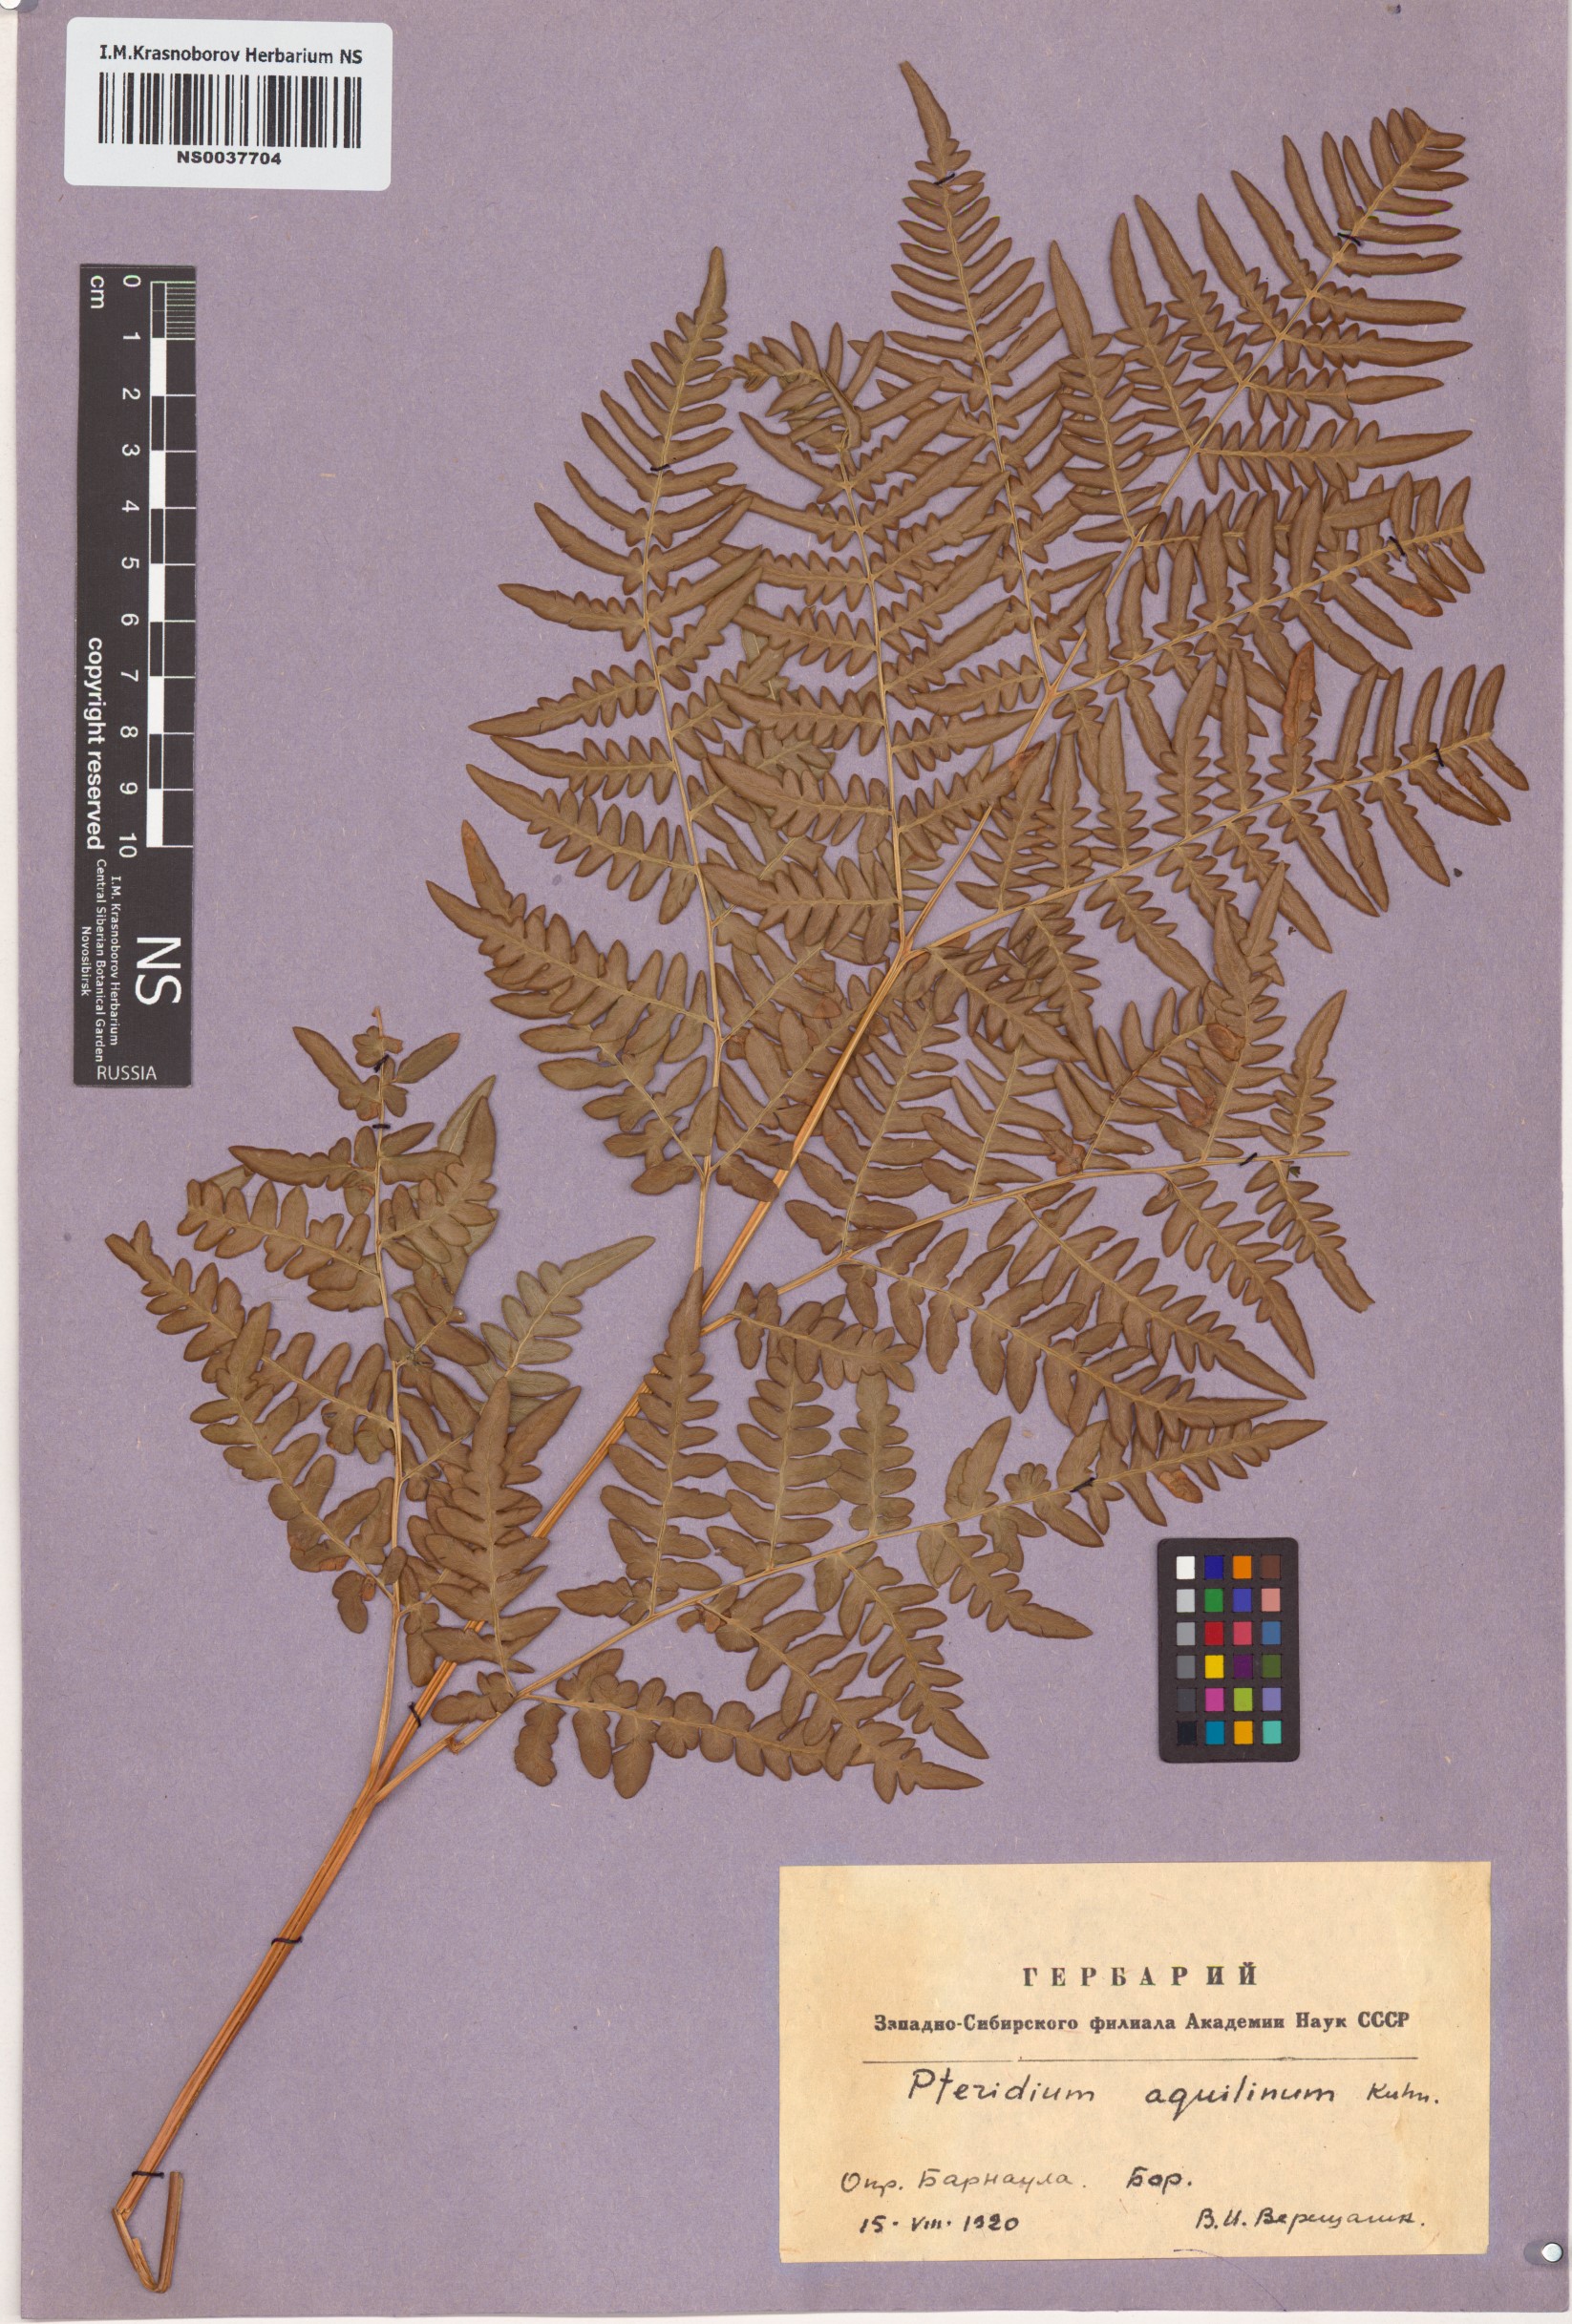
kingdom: Plantae
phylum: Tracheophyta
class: Polypodiopsida
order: Polypodiales
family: Dennstaedtiaceae
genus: Pteridium
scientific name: Pteridium aquilinum
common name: Bracken
